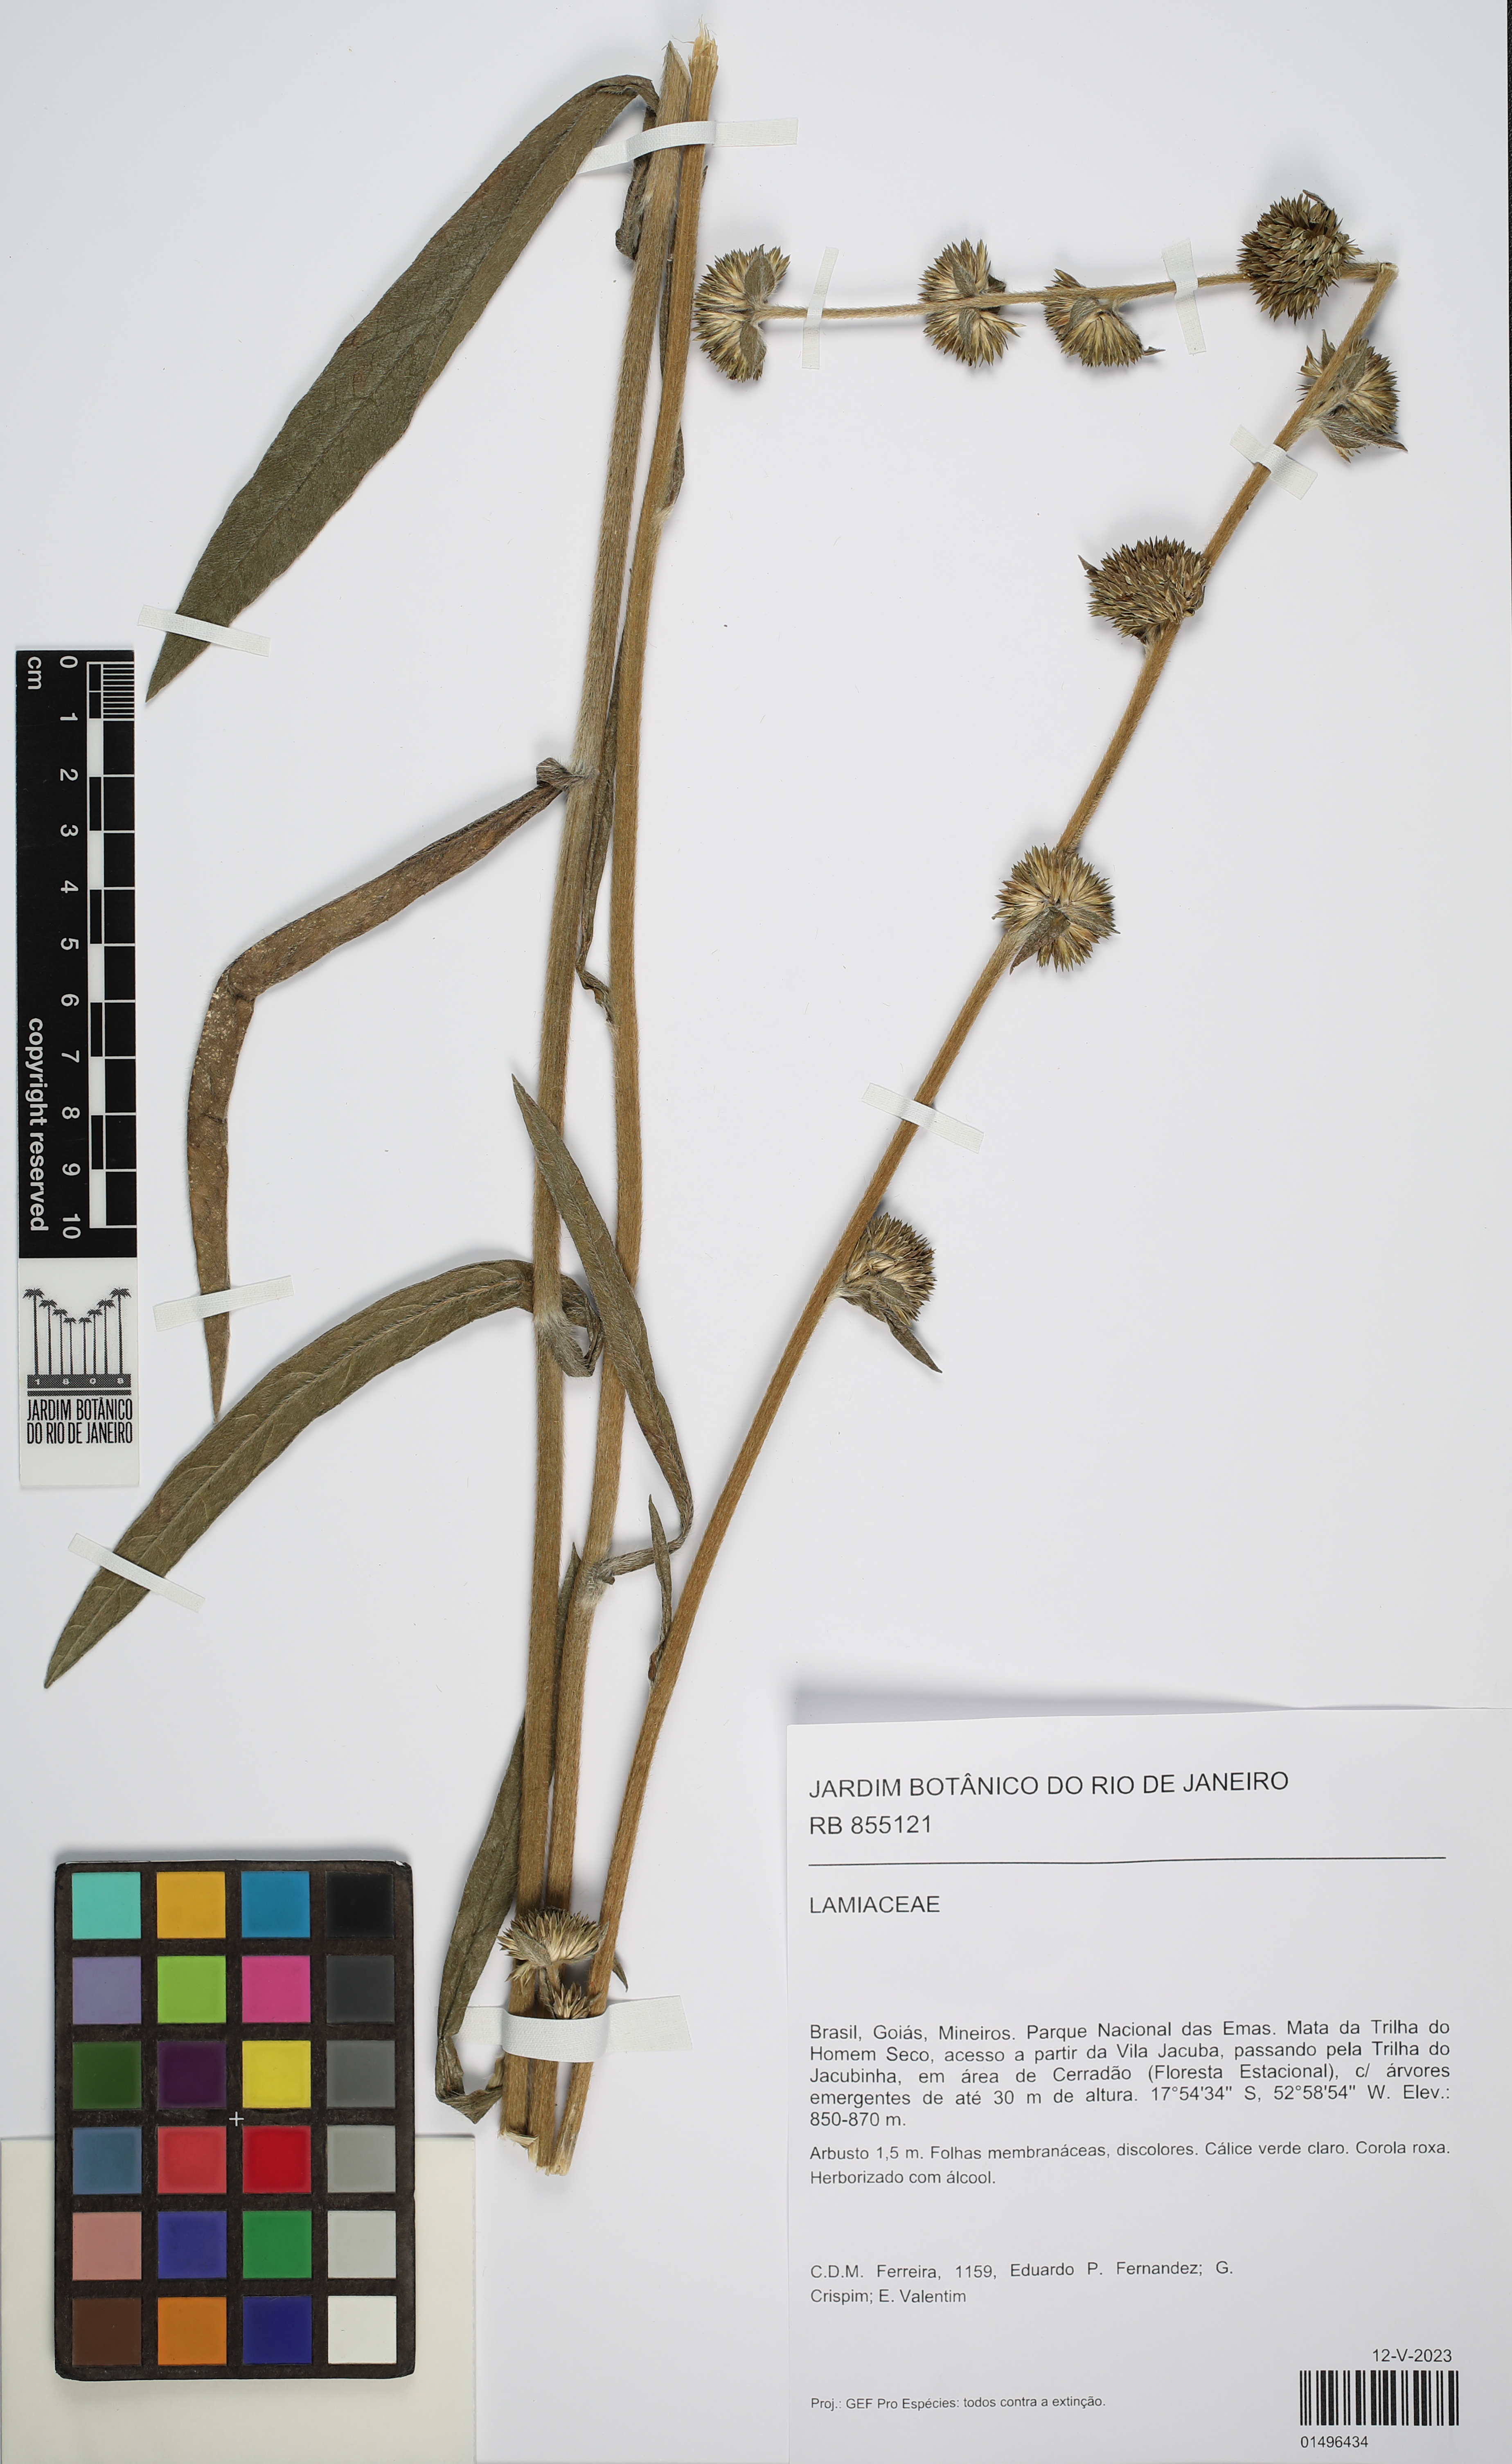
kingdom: Plantae
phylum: Tracheophyta
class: Magnoliopsida
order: Lamiales
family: Lamiaceae
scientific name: Lamiaceae
